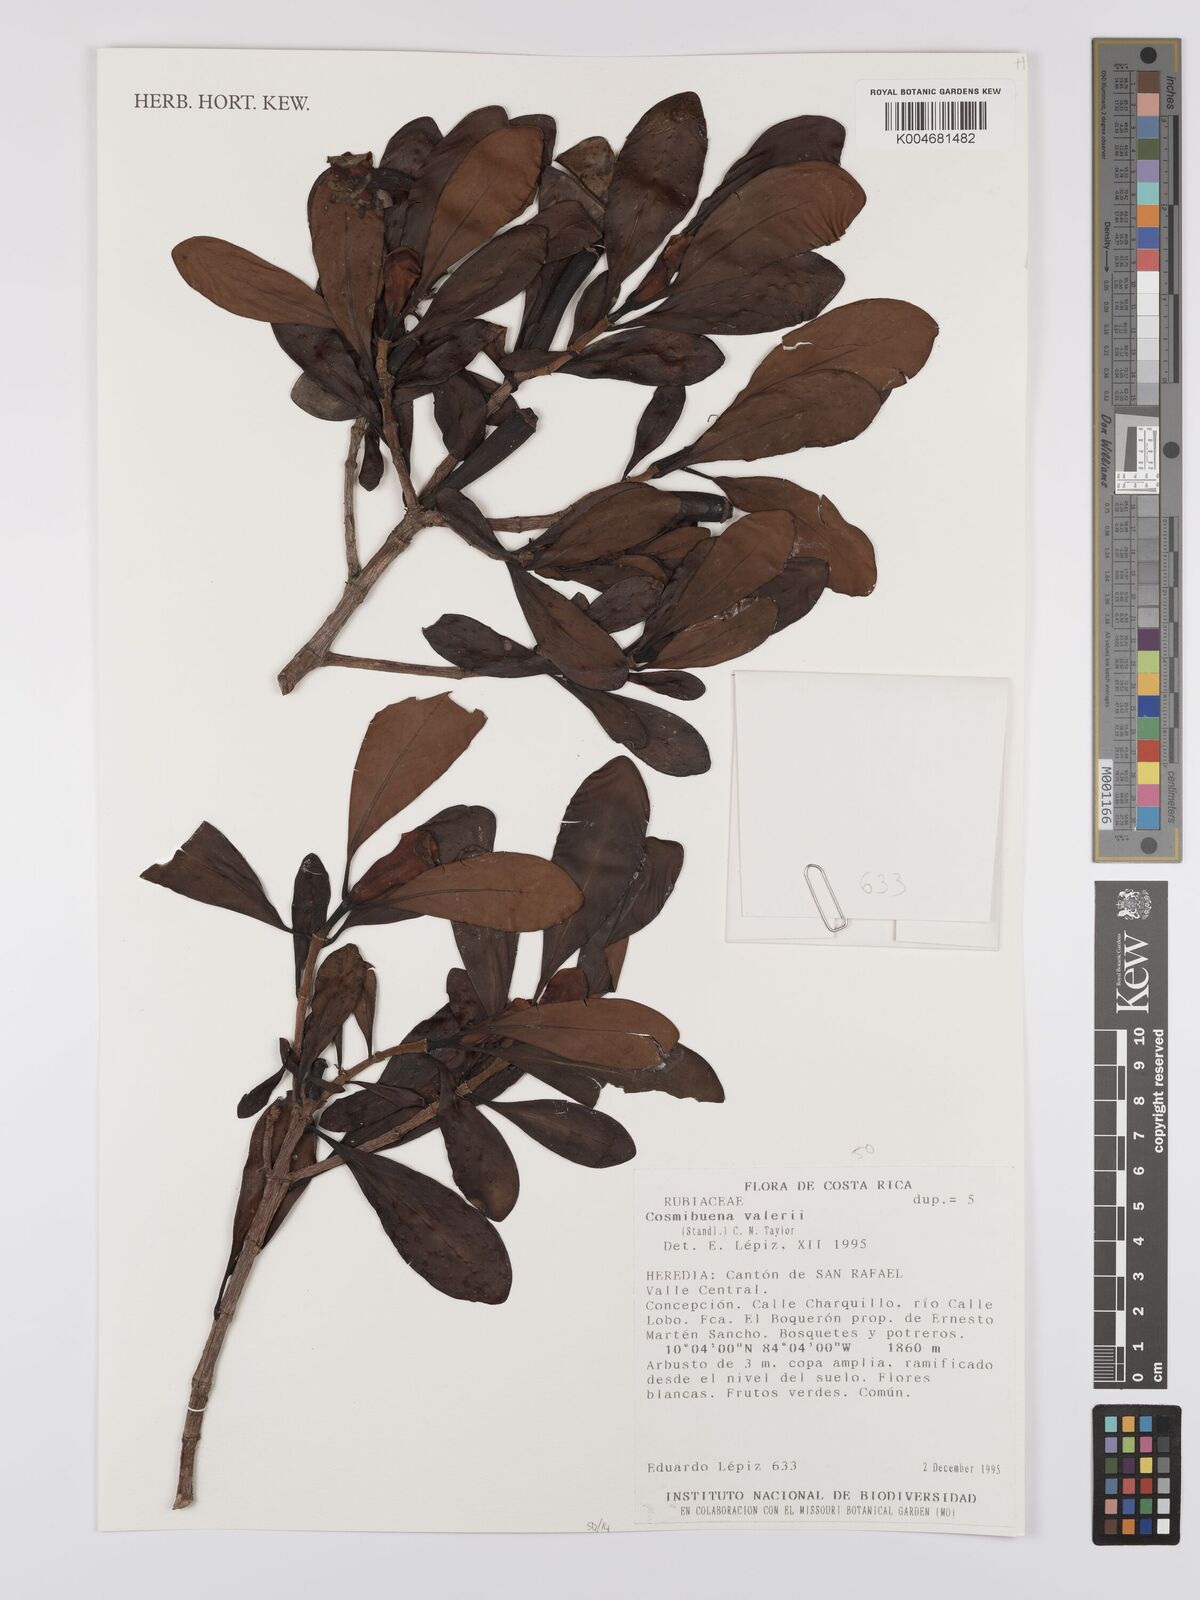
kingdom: Plantae
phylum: Tracheophyta
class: Magnoliopsida
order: Gentianales
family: Rubiaceae
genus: Cosmibuena
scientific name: Cosmibuena valerii
